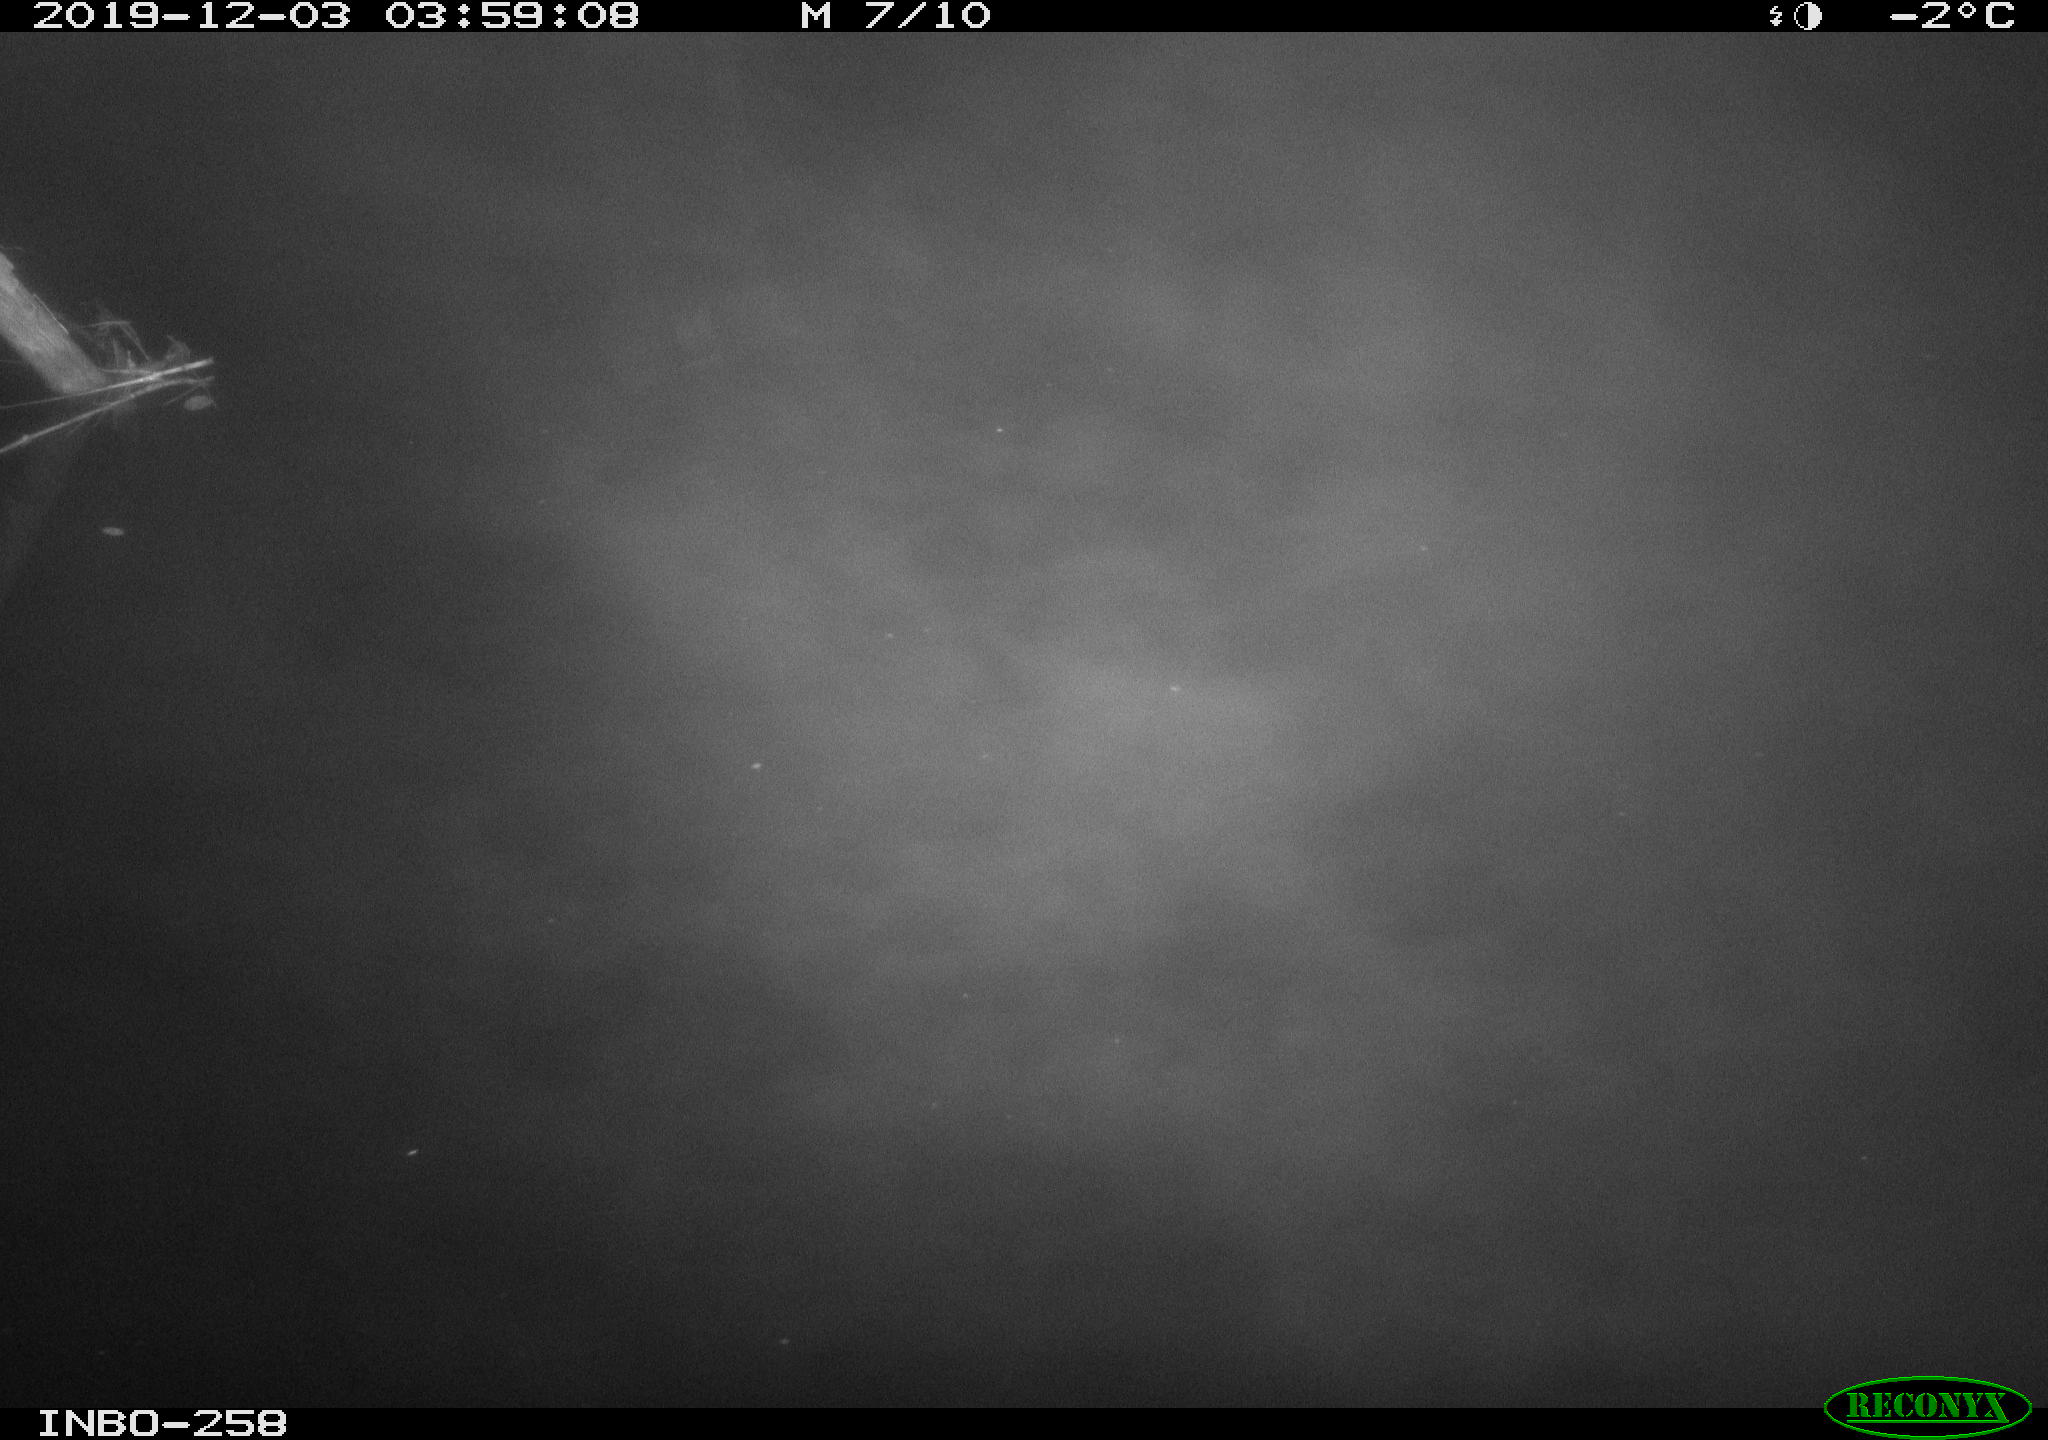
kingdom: Animalia
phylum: Chordata
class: Aves
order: Anseriformes
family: Anatidae
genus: Anas
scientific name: Anas platyrhynchos
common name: Mallard
